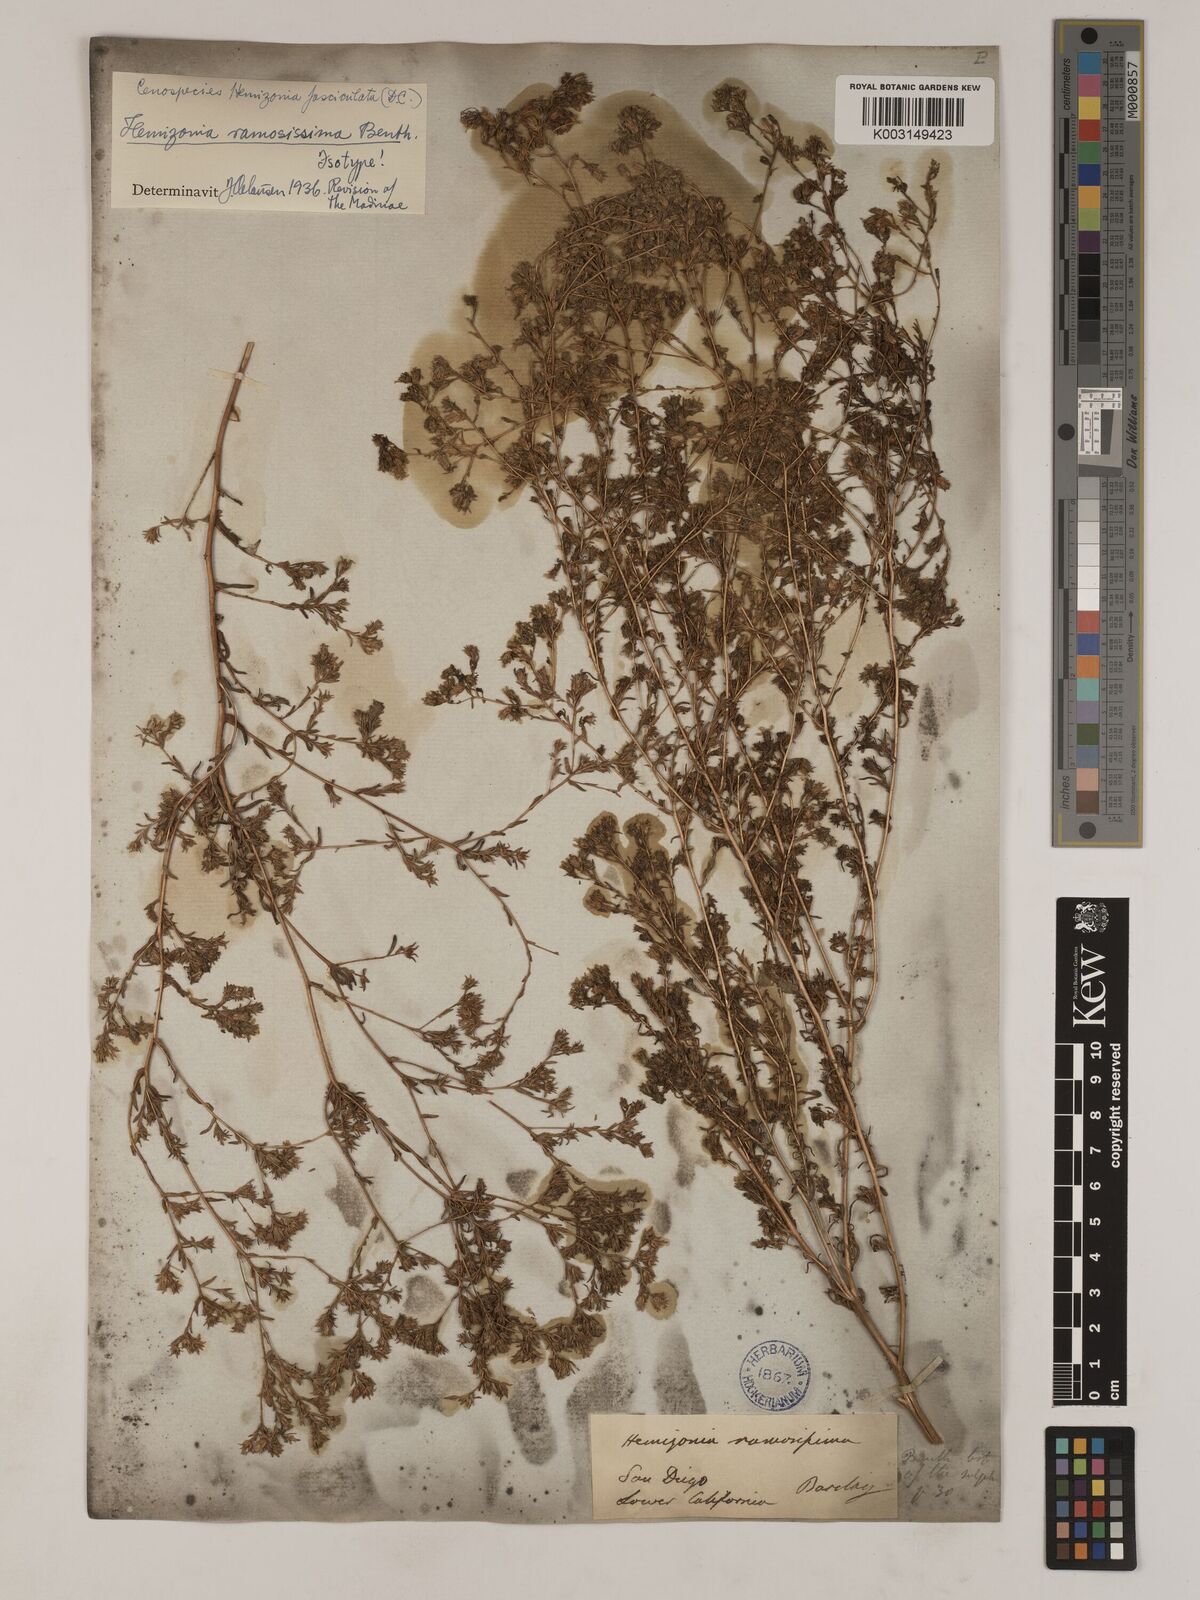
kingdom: Plantae
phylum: Tracheophyta
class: Magnoliopsida
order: Asterales
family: Asteraceae
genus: Deinandra
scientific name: Deinandra fasciculata
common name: Clustered tarweed
